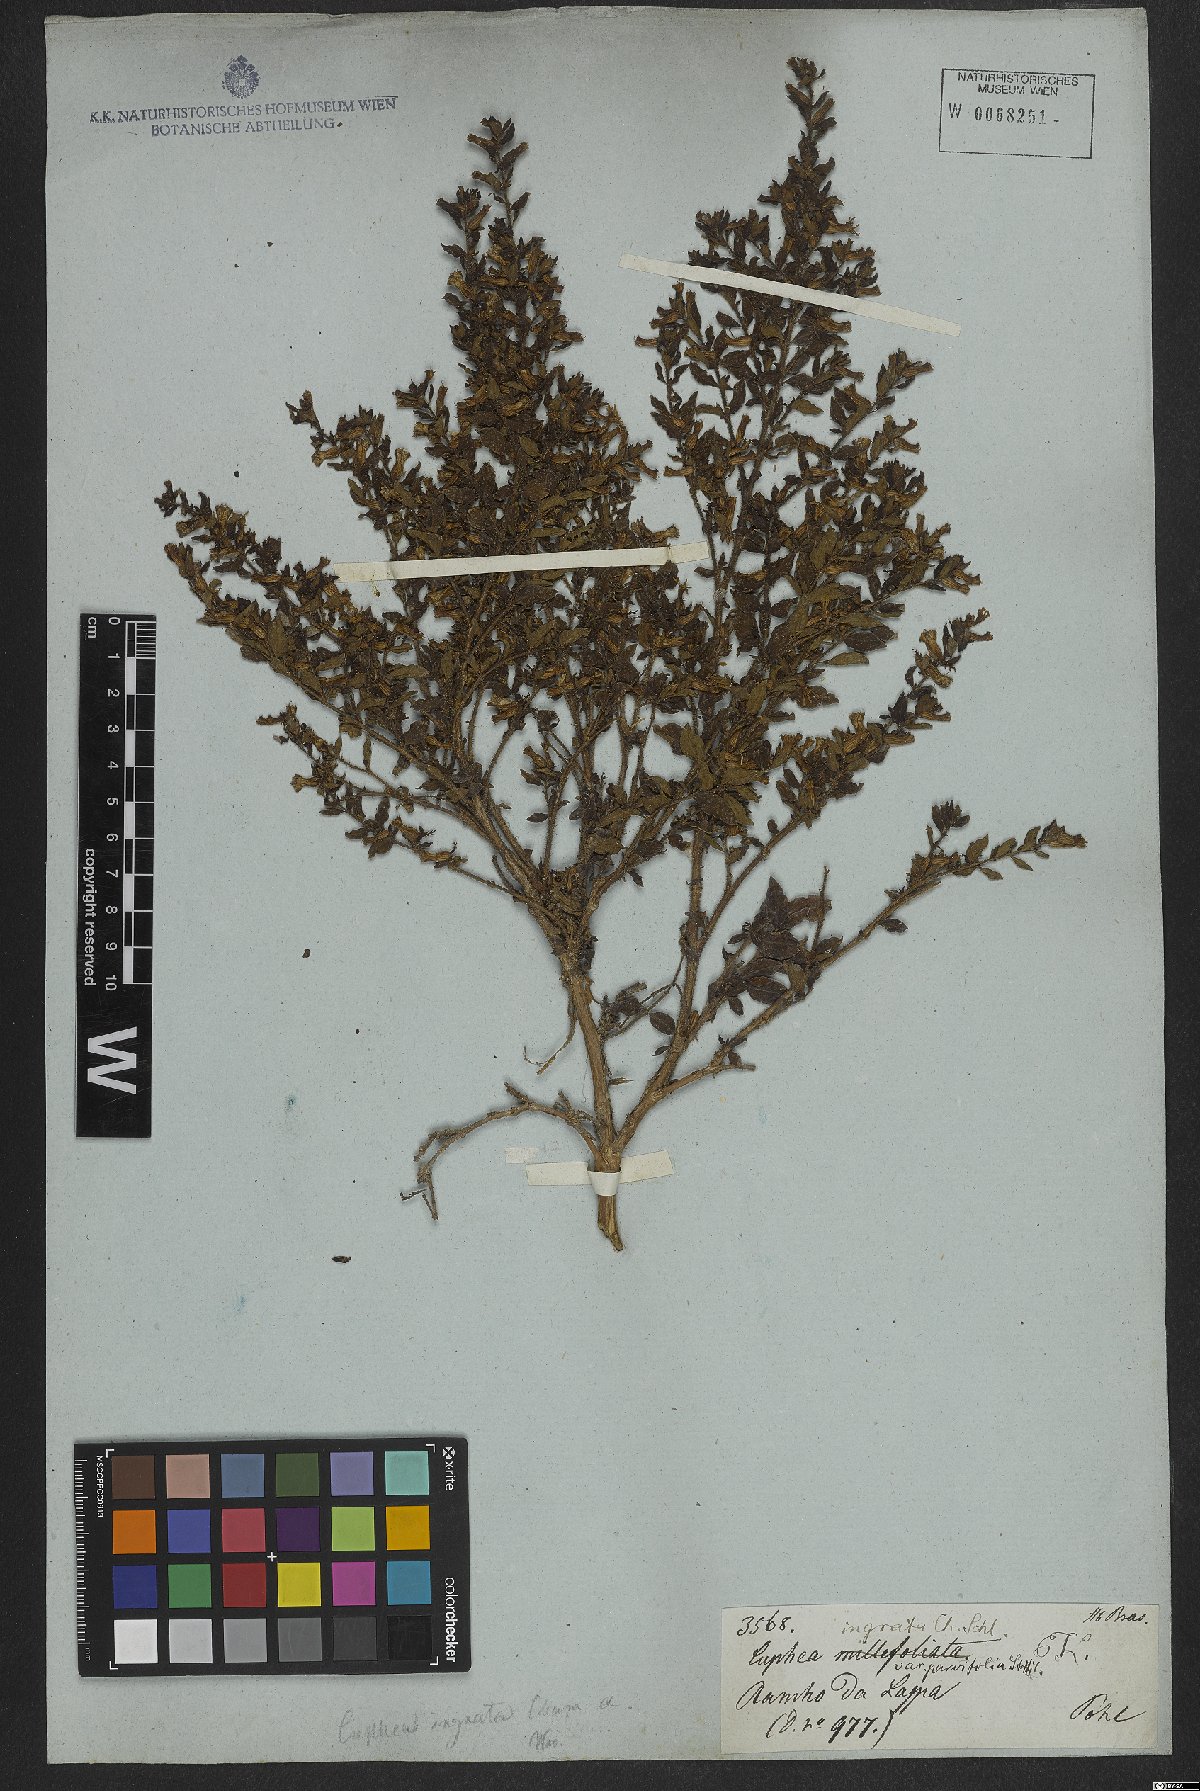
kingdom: Plantae
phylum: Tracheophyta
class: Magnoliopsida
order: Myrtales
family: Lythraceae
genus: Cuphea
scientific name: Cuphea ingrata
